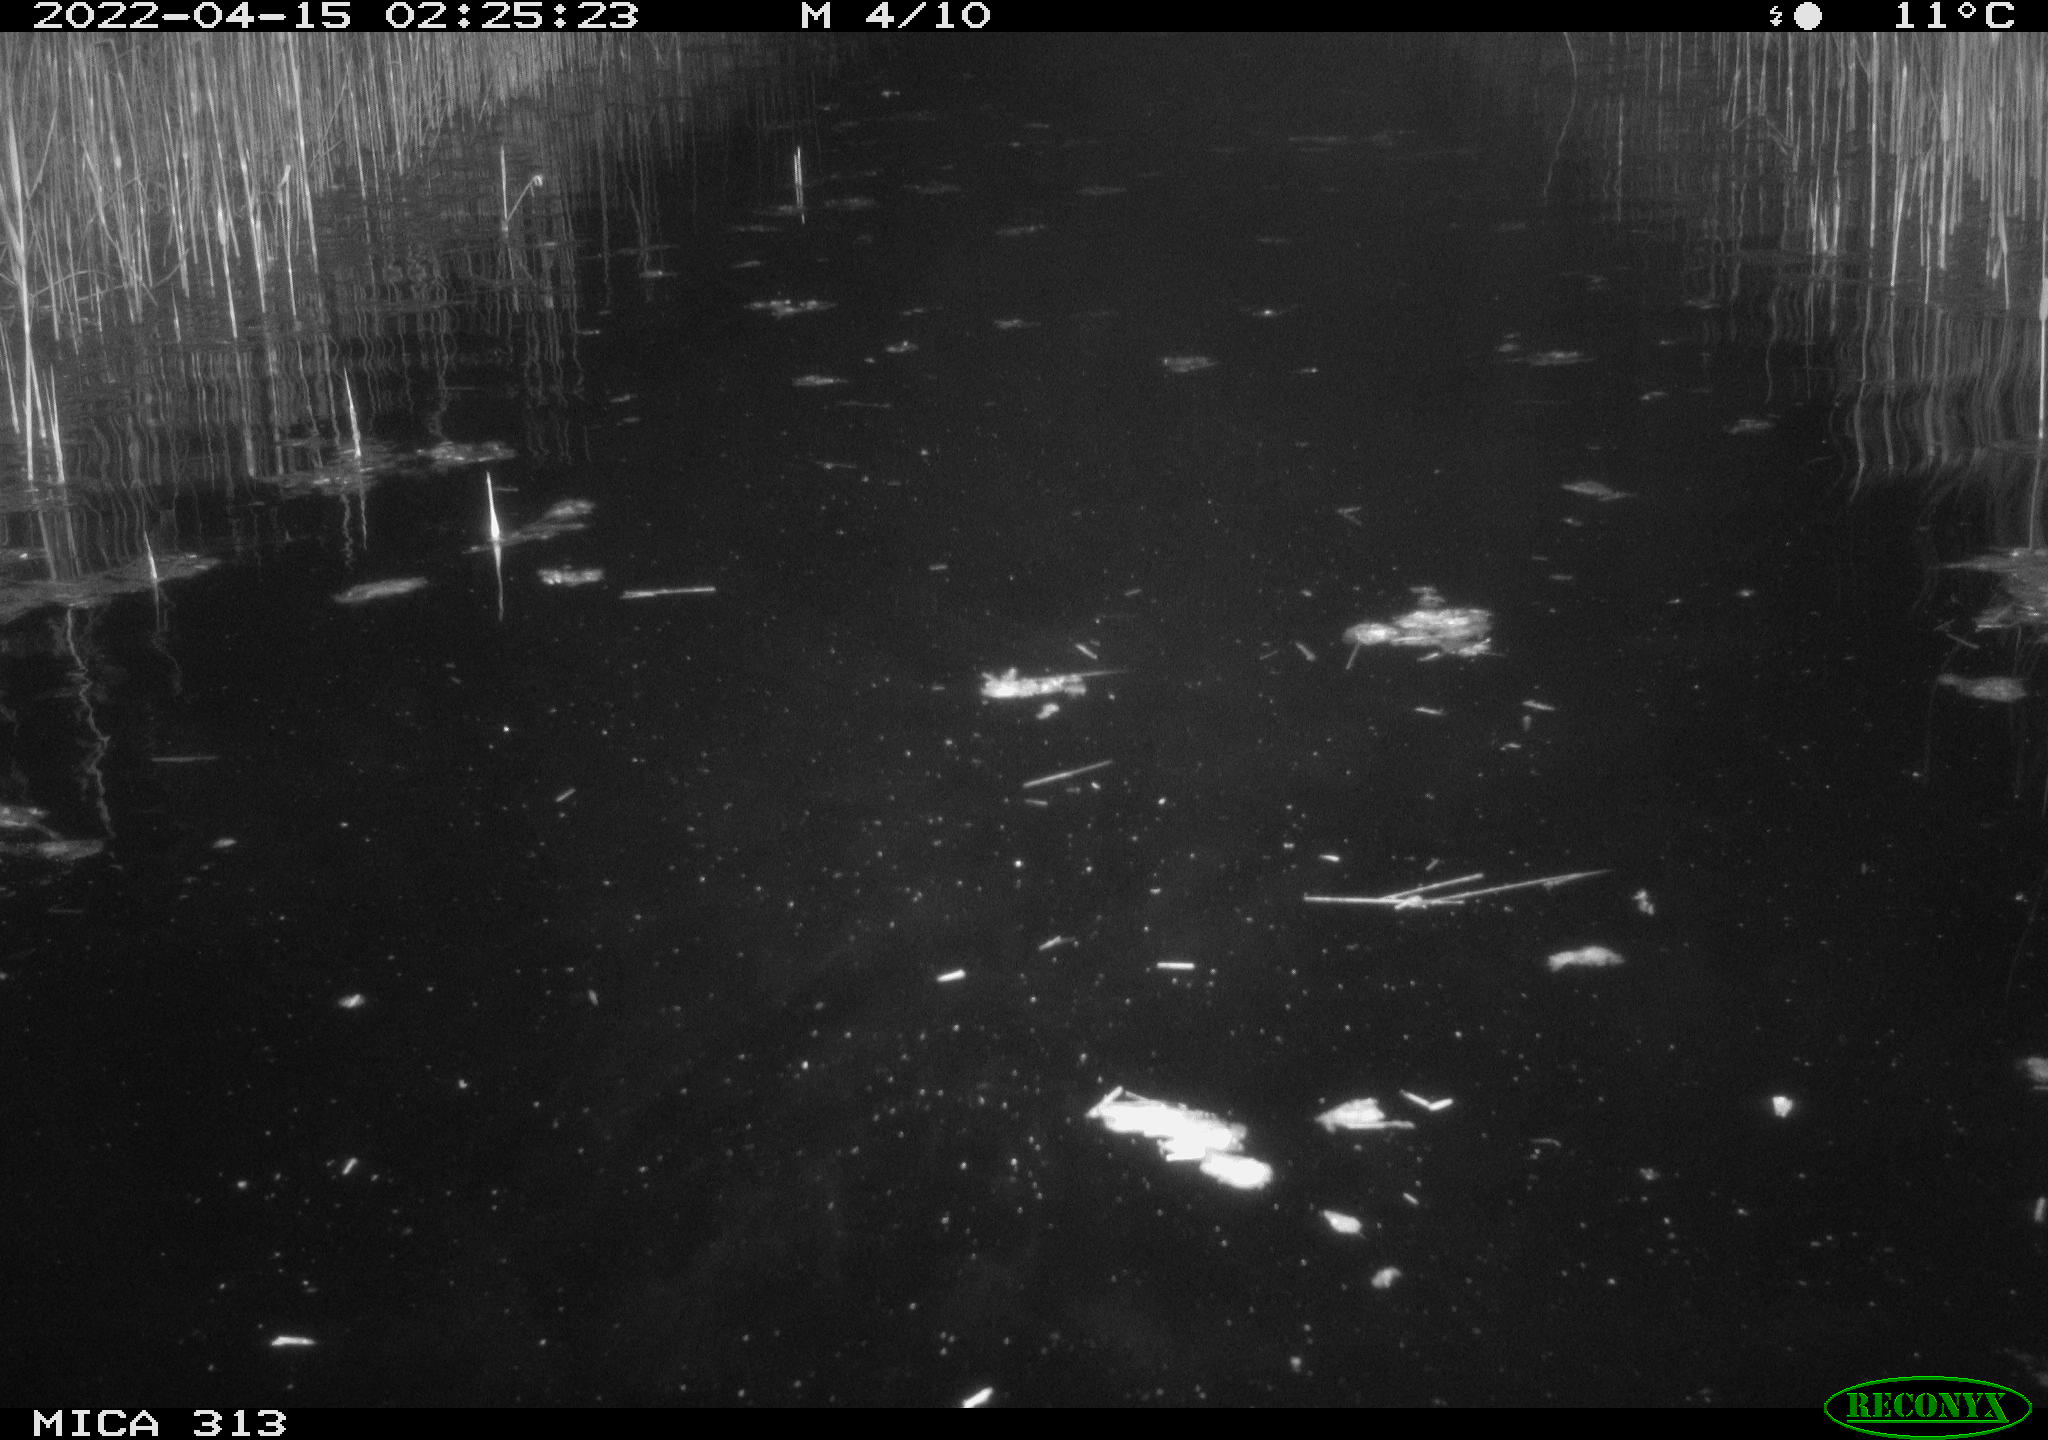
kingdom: Animalia
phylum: Chordata
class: Mammalia
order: Rodentia
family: Cricetidae
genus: Ondatra
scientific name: Ondatra zibethicus
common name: Muskrat
